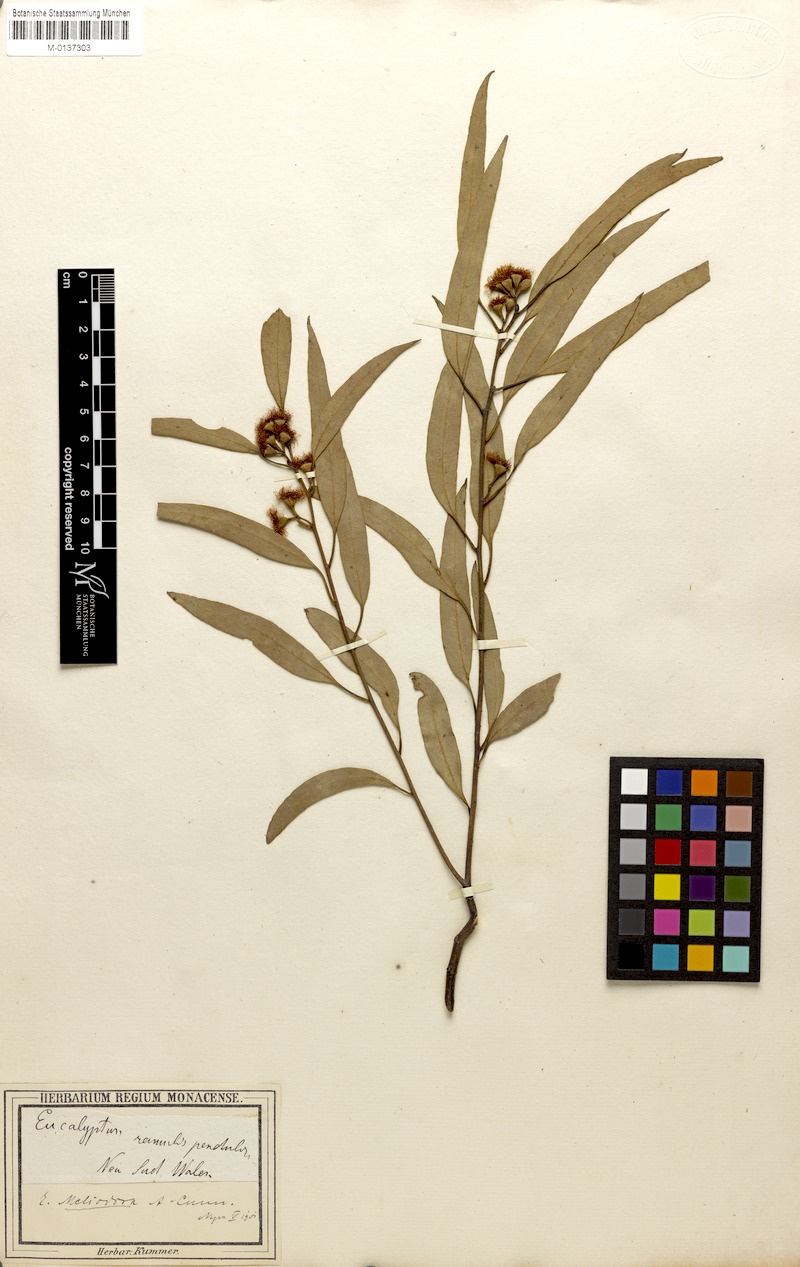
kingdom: Plantae
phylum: Tracheophyta
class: Magnoliopsida
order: Myrtales
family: Myrtaceae
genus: Eucalyptus
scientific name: Eucalyptus melliodora
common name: Yellow ironbox
